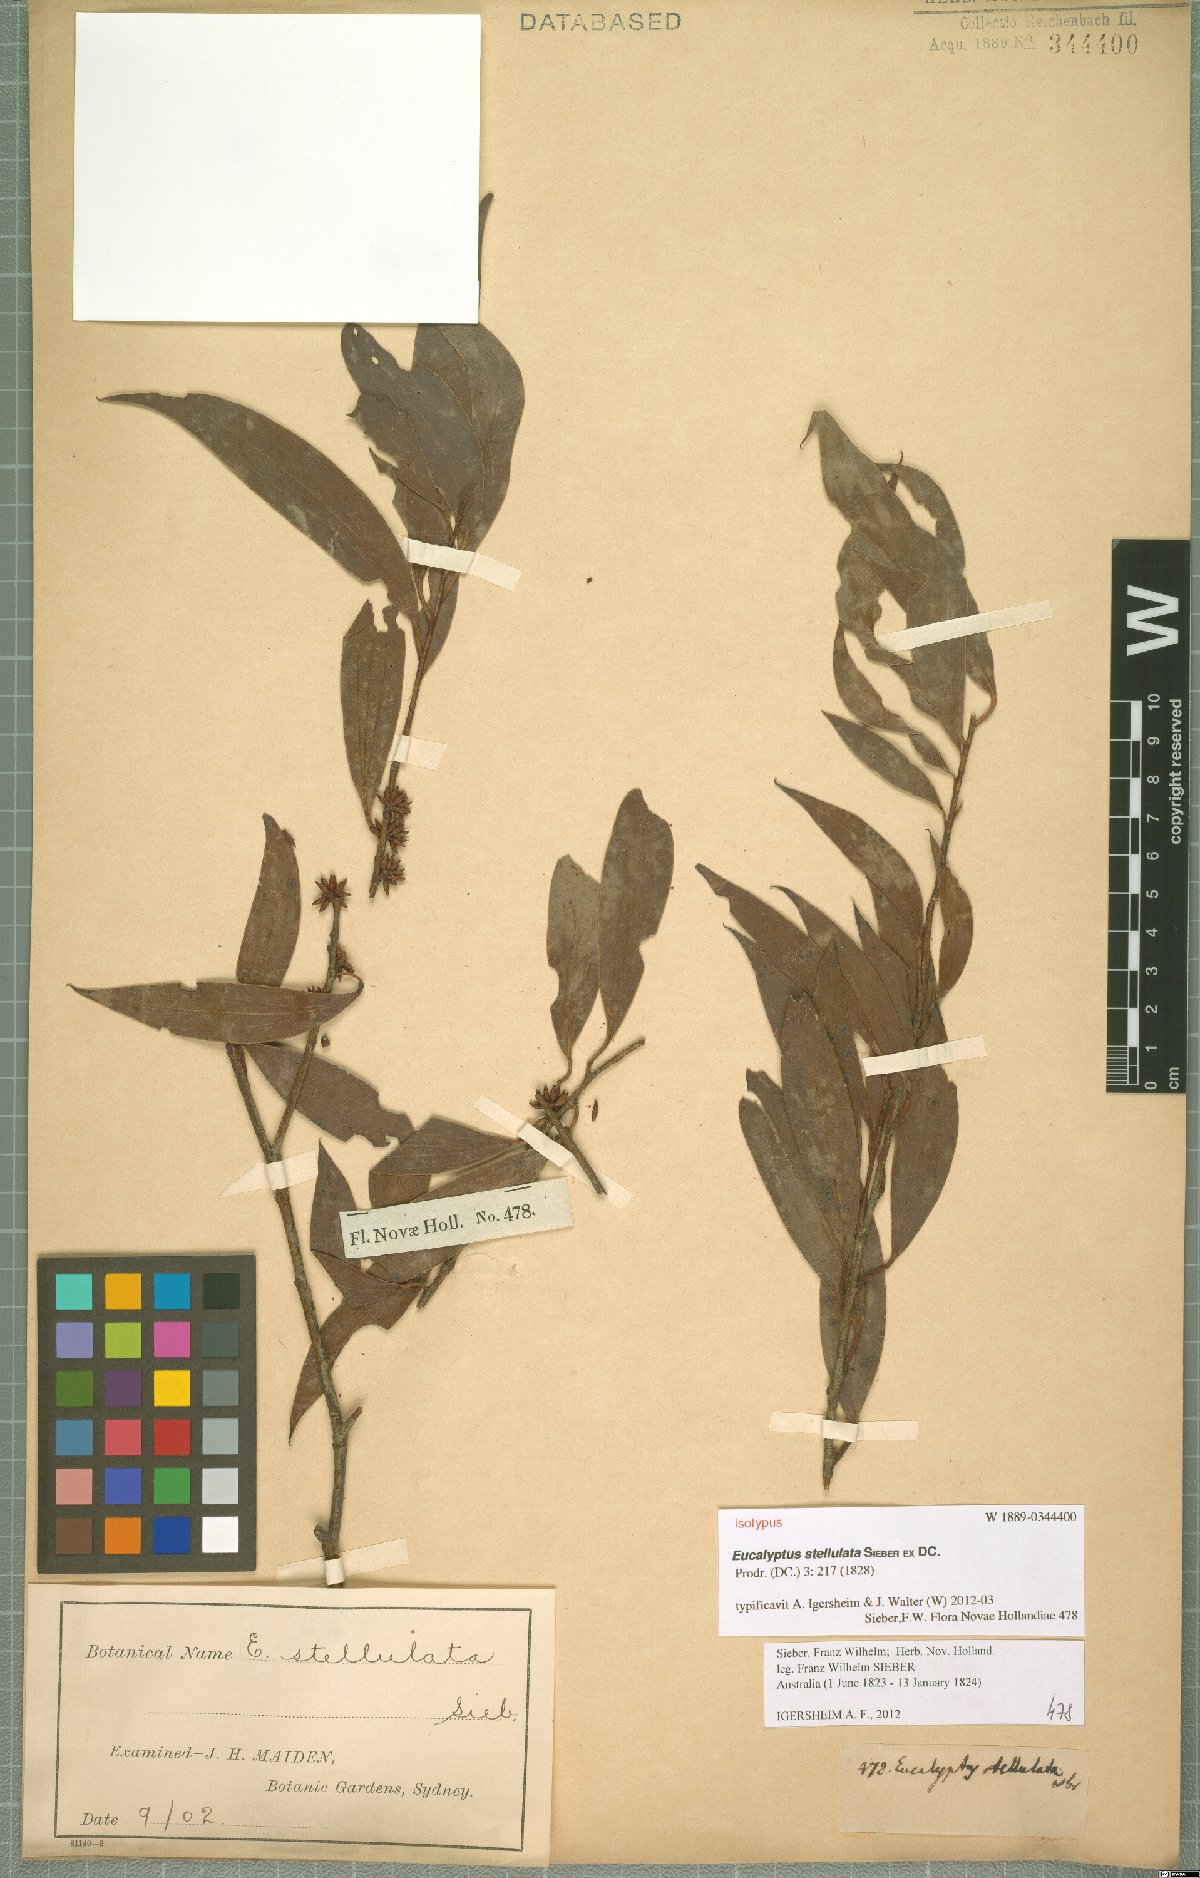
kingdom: Plantae
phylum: Tracheophyta
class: Magnoliopsida
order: Myrtales
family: Myrtaceae
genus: Eucalyptus
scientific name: Eucalyptus stellulata
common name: Black sallee
